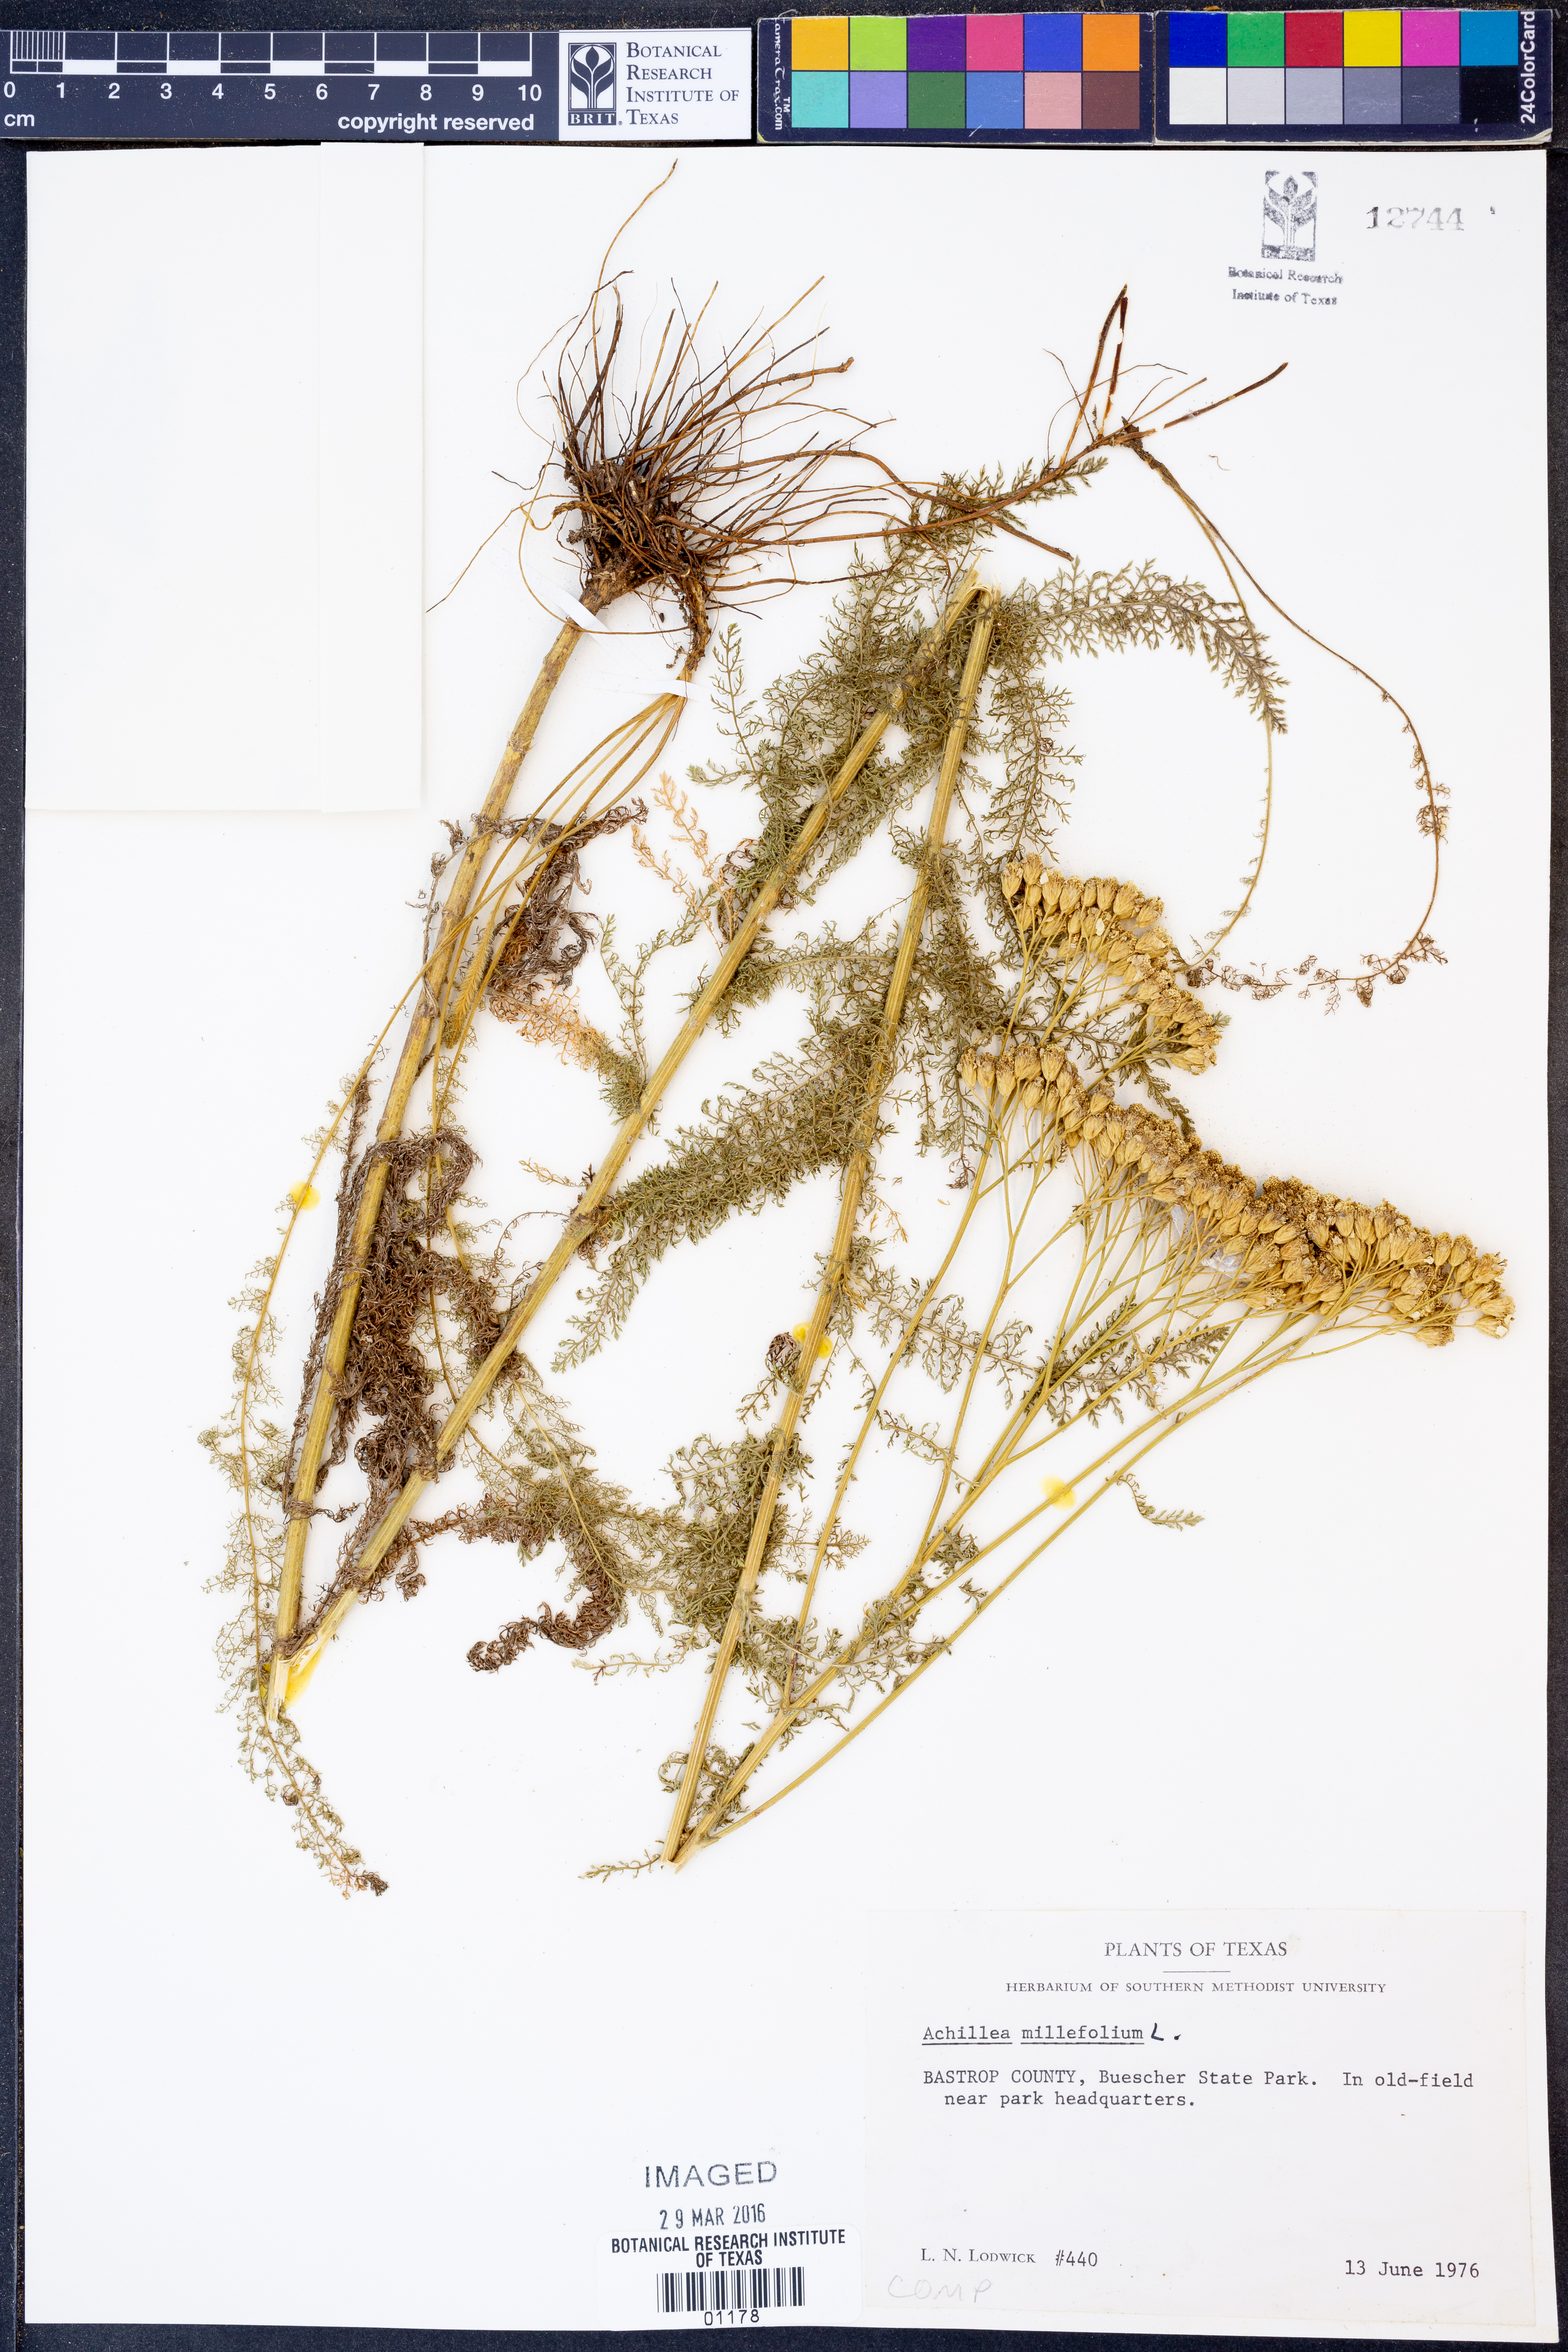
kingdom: Plantae
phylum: Tracheophyta
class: Magnoliopsida
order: Asterales
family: Asteraceae
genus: Achillea
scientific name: Achillea millefolium
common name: Yarrow
